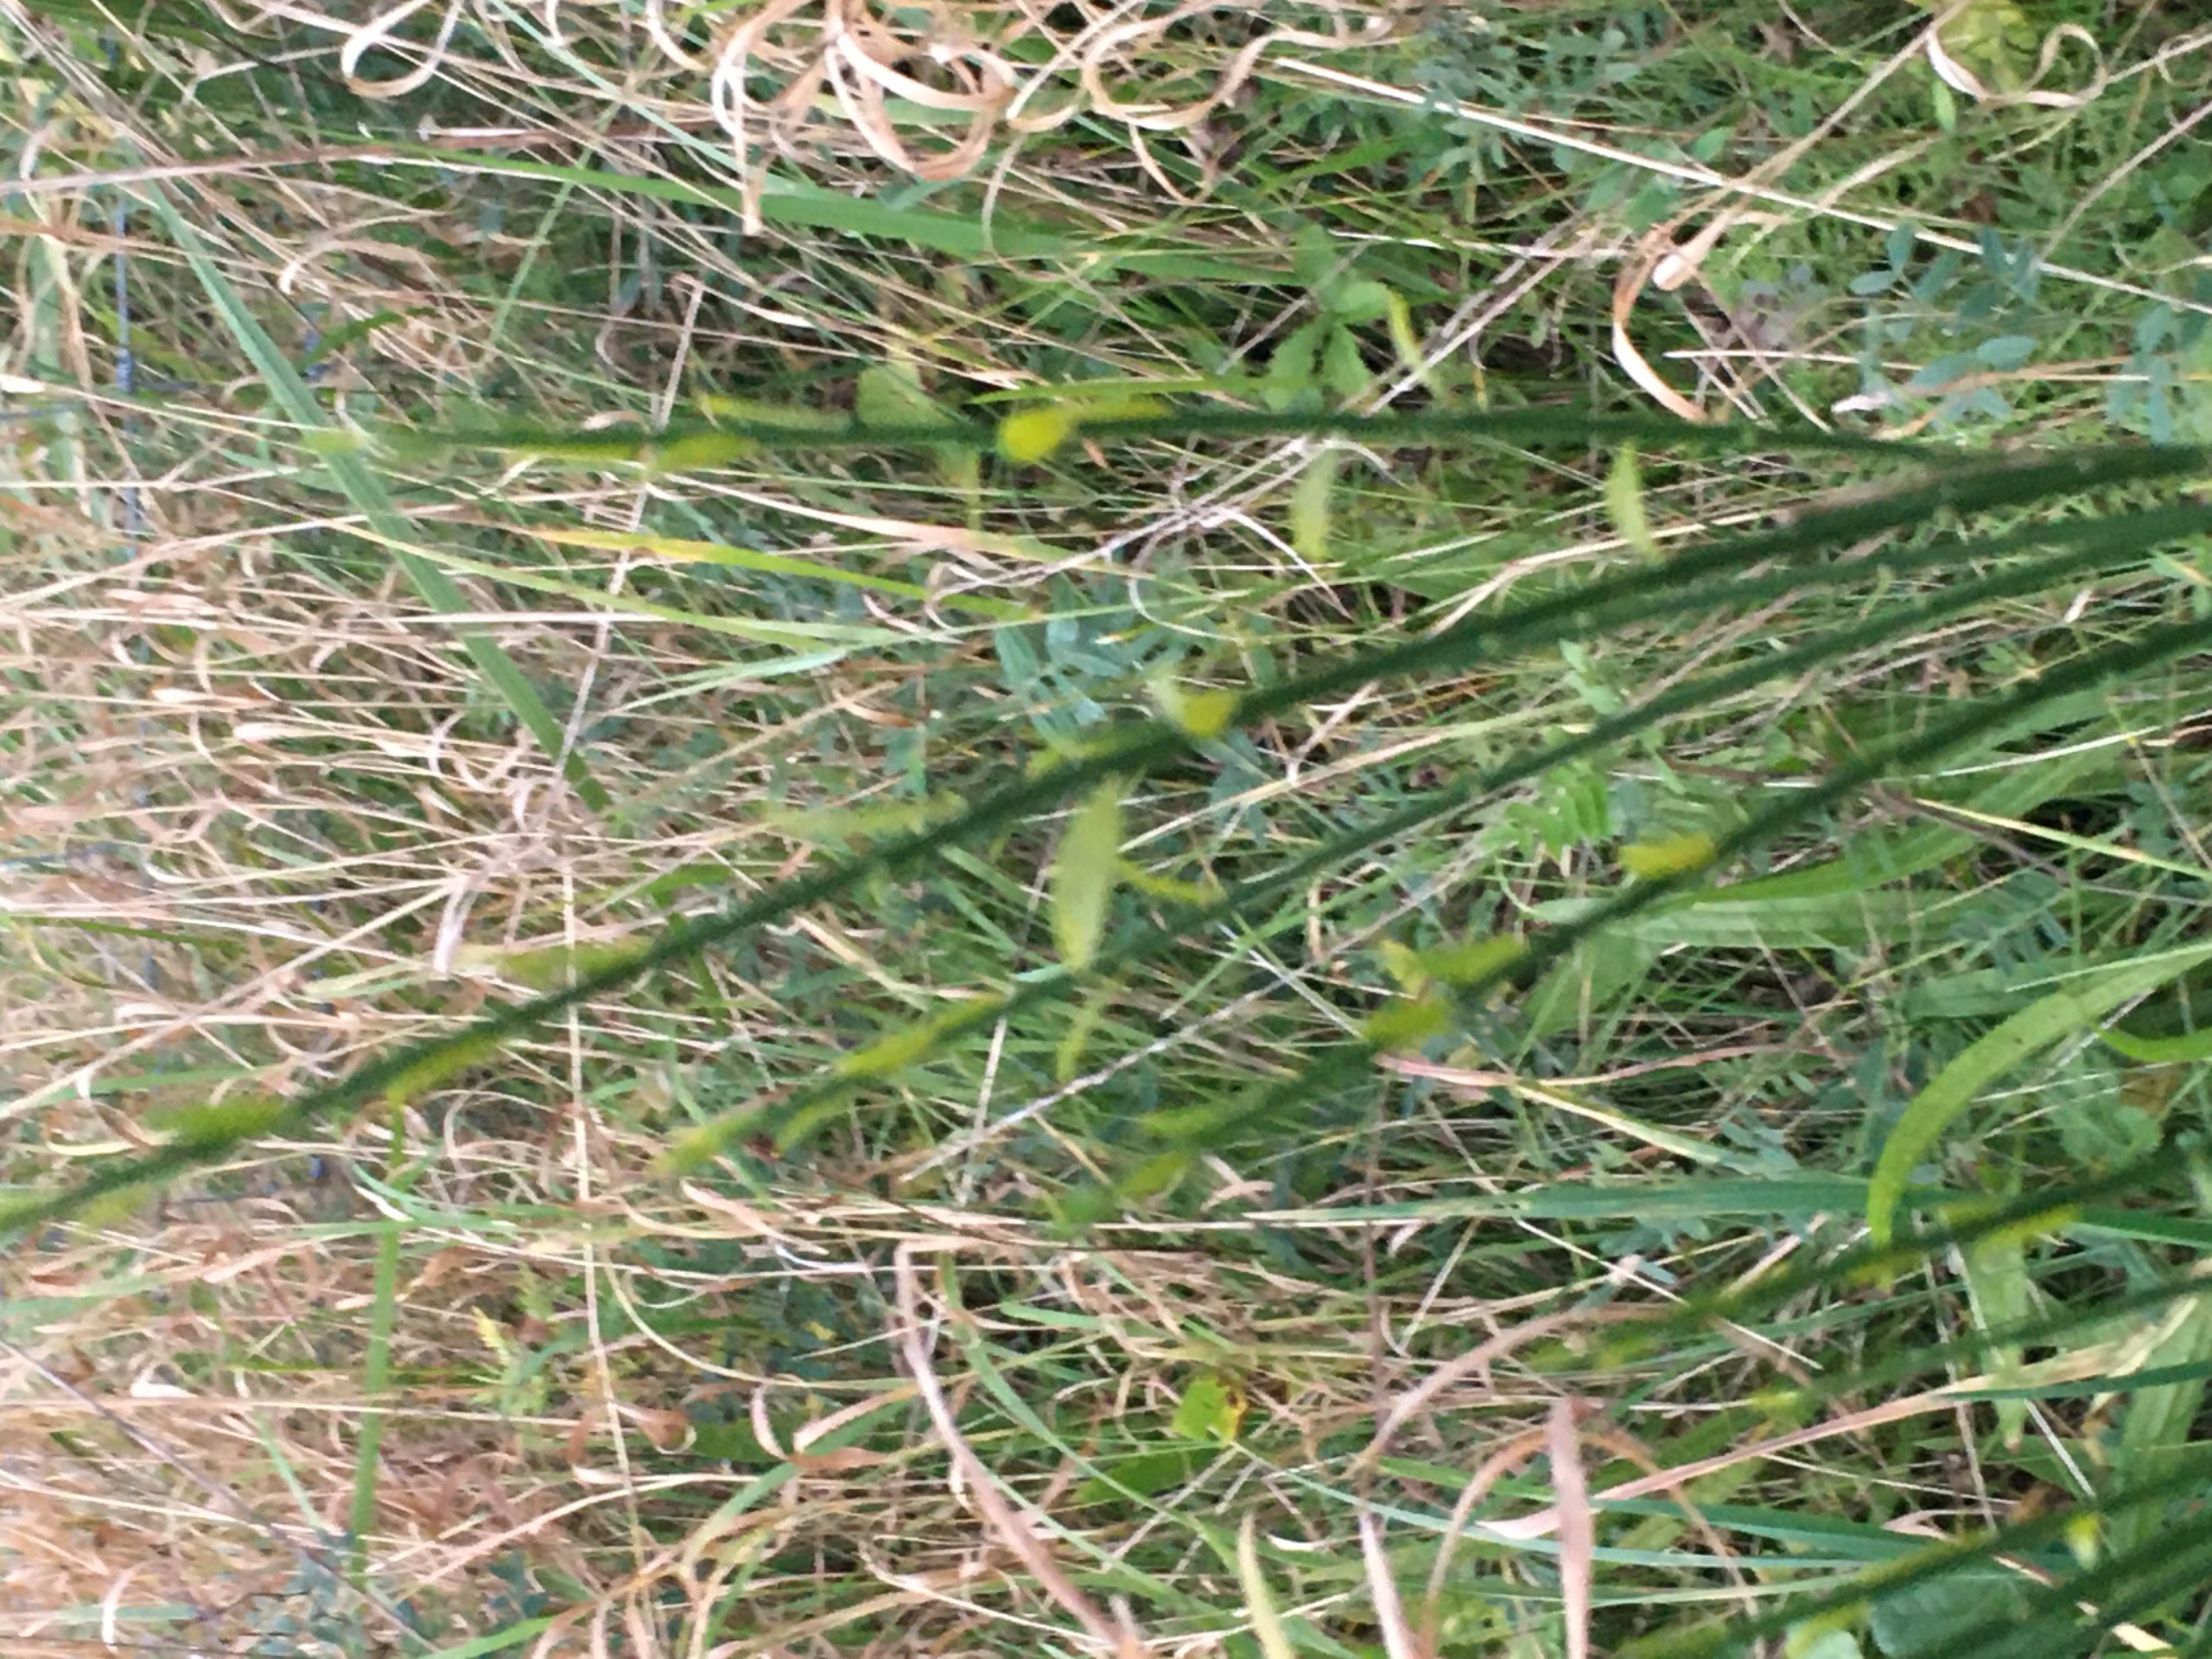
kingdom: Plantae
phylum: Tracheophyta
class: Magnoliopsida
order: Fabales
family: Fabaceae
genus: Cytisus
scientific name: Cytisus scoparius
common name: Almindelig gyvel
